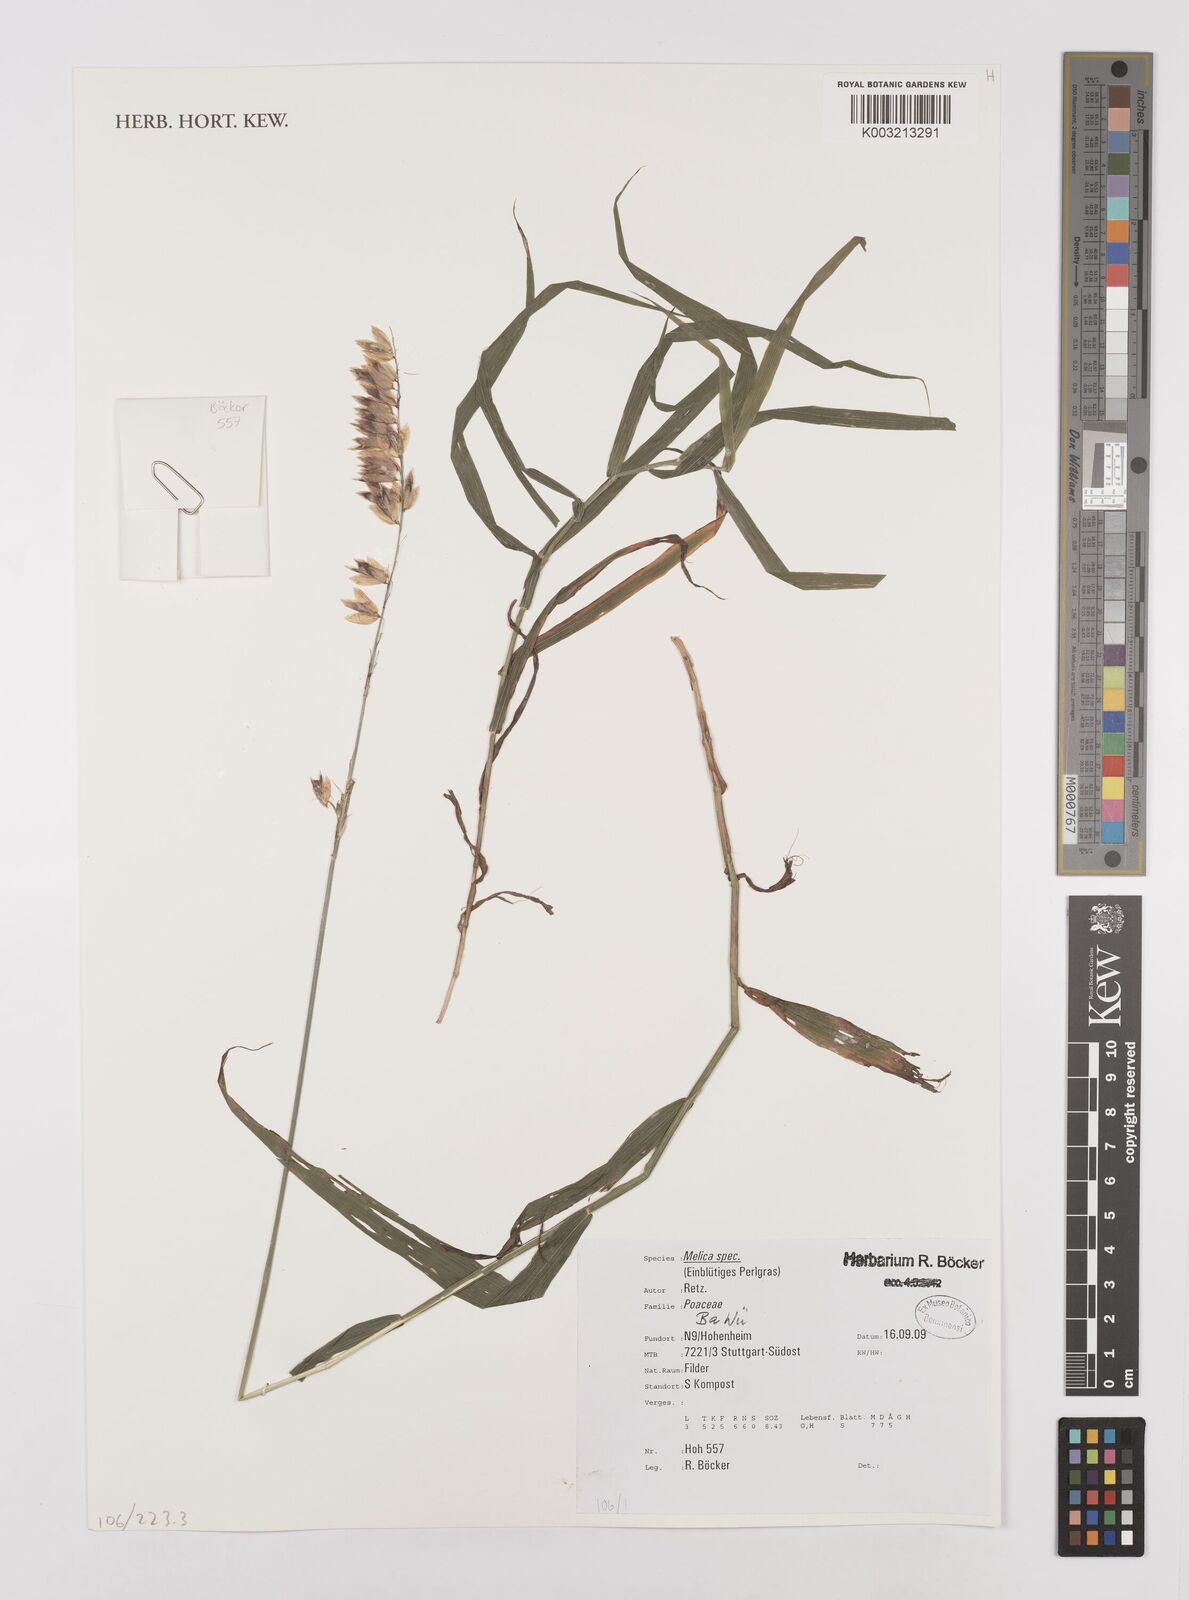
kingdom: Plantae
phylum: Tracheophyta
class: Liliopsida
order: Poales
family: Poaceae
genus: Melica
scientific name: Melica
